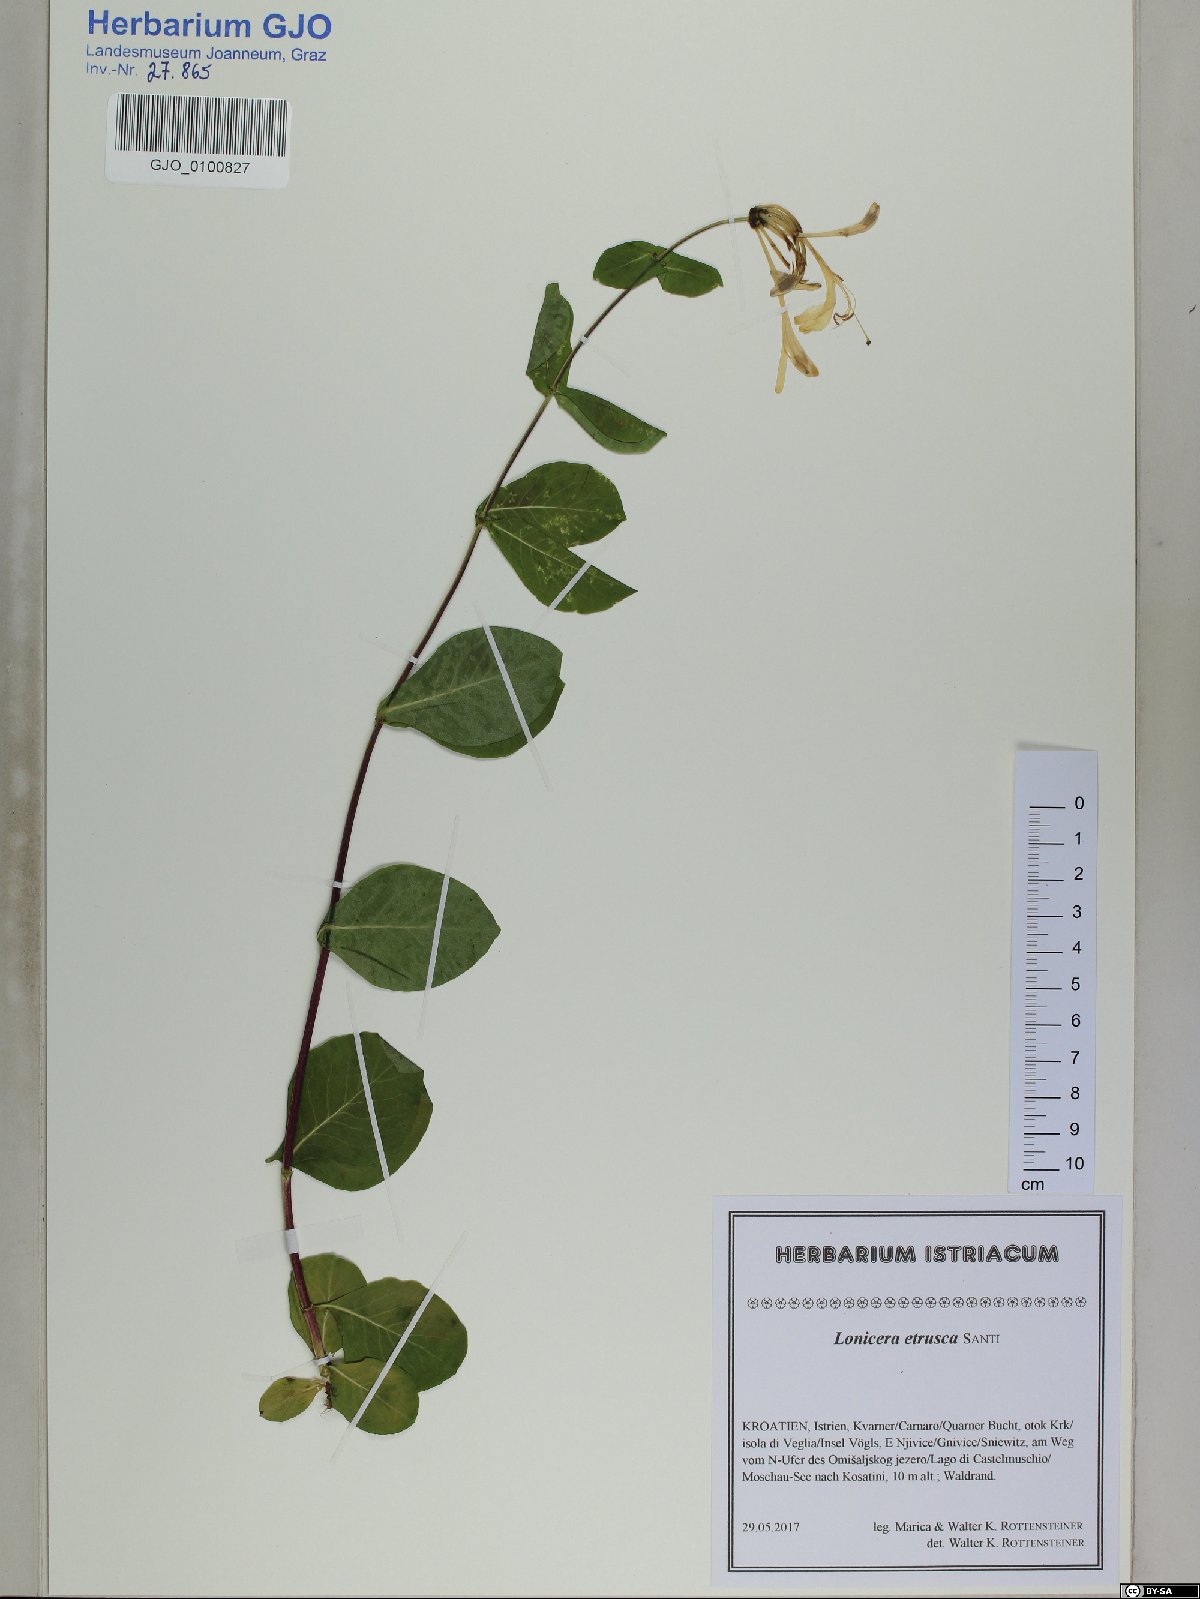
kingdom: Plantae
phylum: Tracheophyta
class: Magnoliopsida
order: Dipsacales
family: Caprifoliaceae
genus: Lonicera
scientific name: Lonicera etrusca
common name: Etruscan honeysuckle
